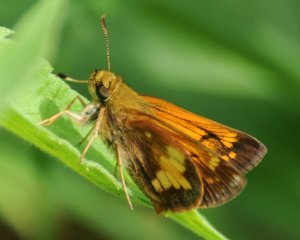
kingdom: Animalia
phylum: Arthropoda
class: Insecta
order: Lepidoptera
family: Hesperiidae
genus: Lon
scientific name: Lon hobomok
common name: Hobomok Skipper
